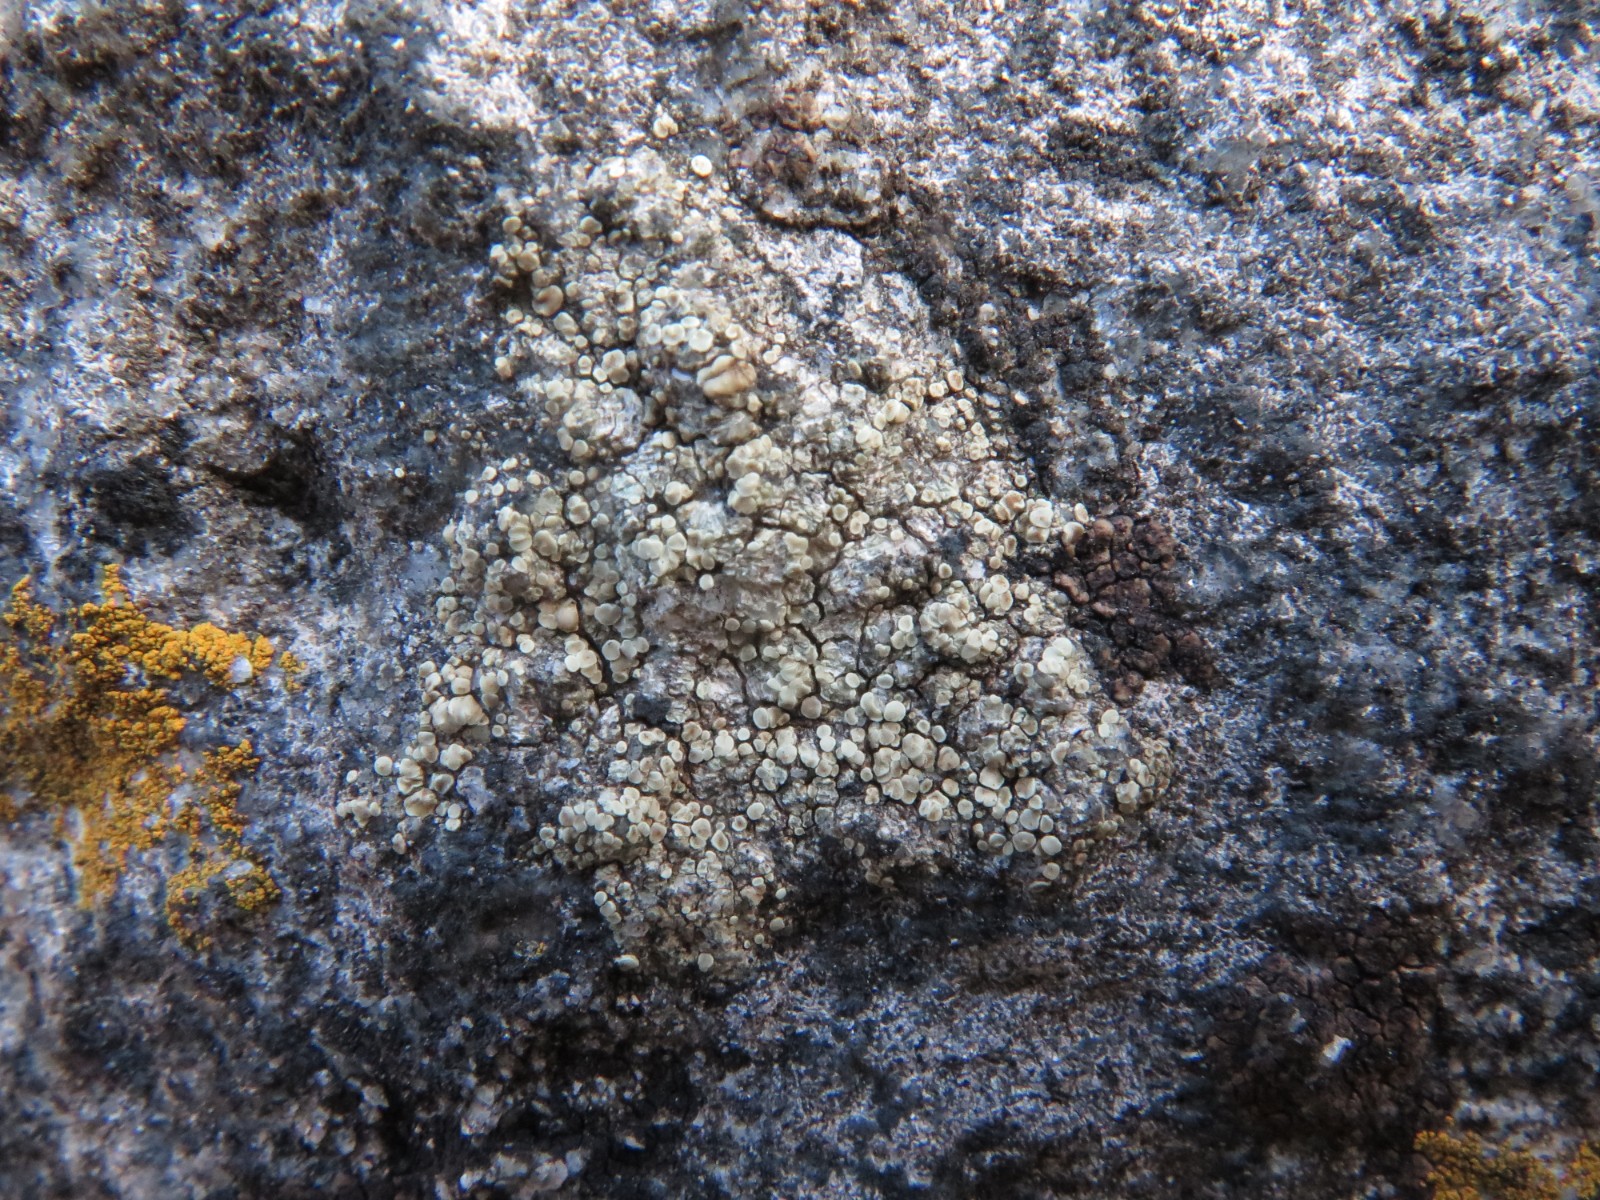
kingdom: Fungi
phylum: Ascomycota
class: Lecanoromycetes
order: Lecanorales
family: Lecanoraceae
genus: Lecanora
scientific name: Lecanora polytropa
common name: bleggrøn kantskivelav
